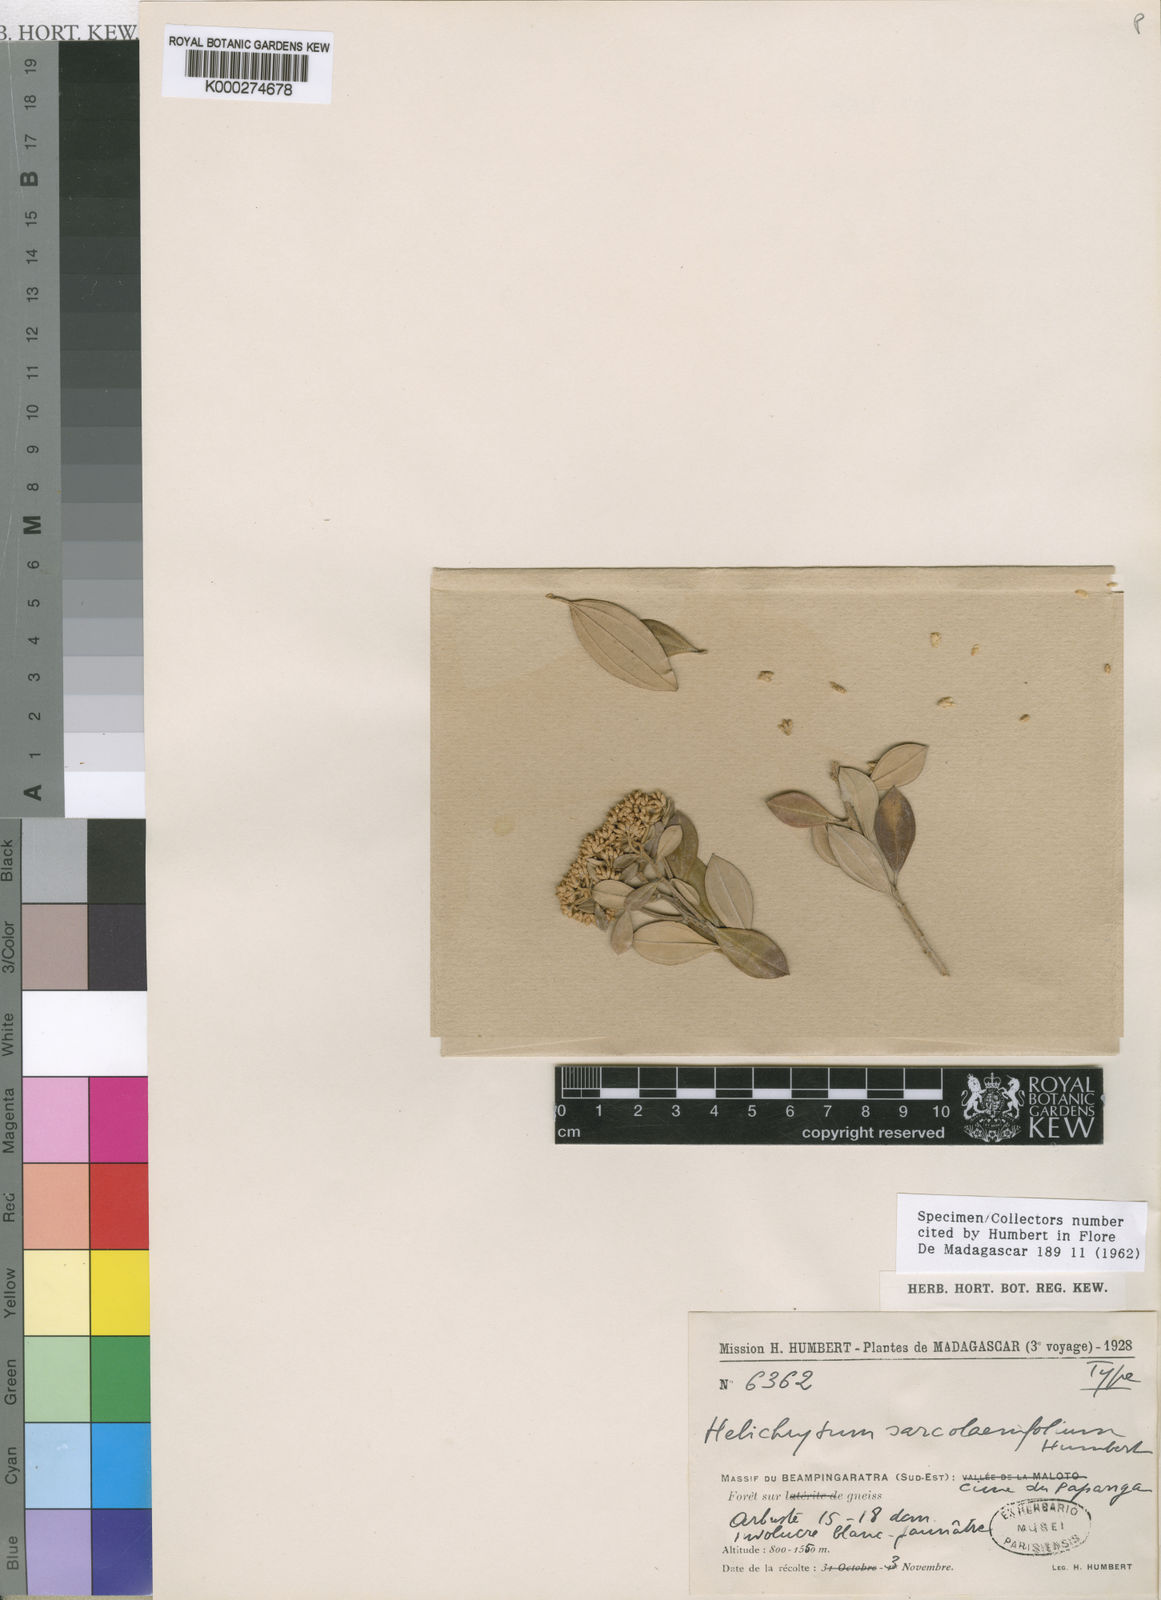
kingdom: Plantae
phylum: Tracheophyta
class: Magnoliopsida
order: Asterales
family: Asteraceae
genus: Helichrysum
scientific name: Helichrysum sarcolaenifolium
